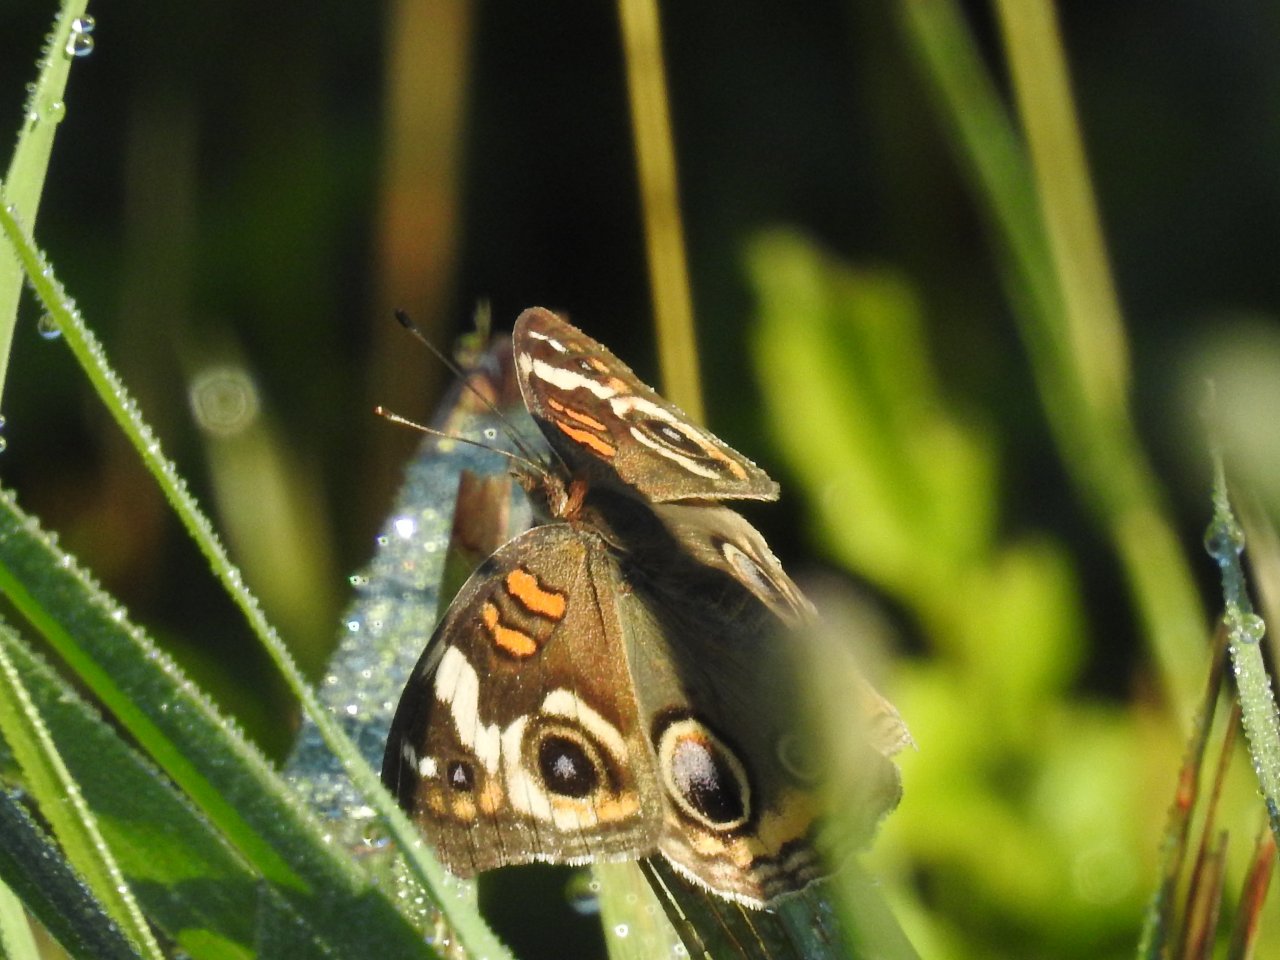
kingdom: Animalia
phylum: Arthropoda
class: Insecta
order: Lepidoptera
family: Nymphalidae
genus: Junonia
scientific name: Junonia coenia
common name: Common Buckeye
